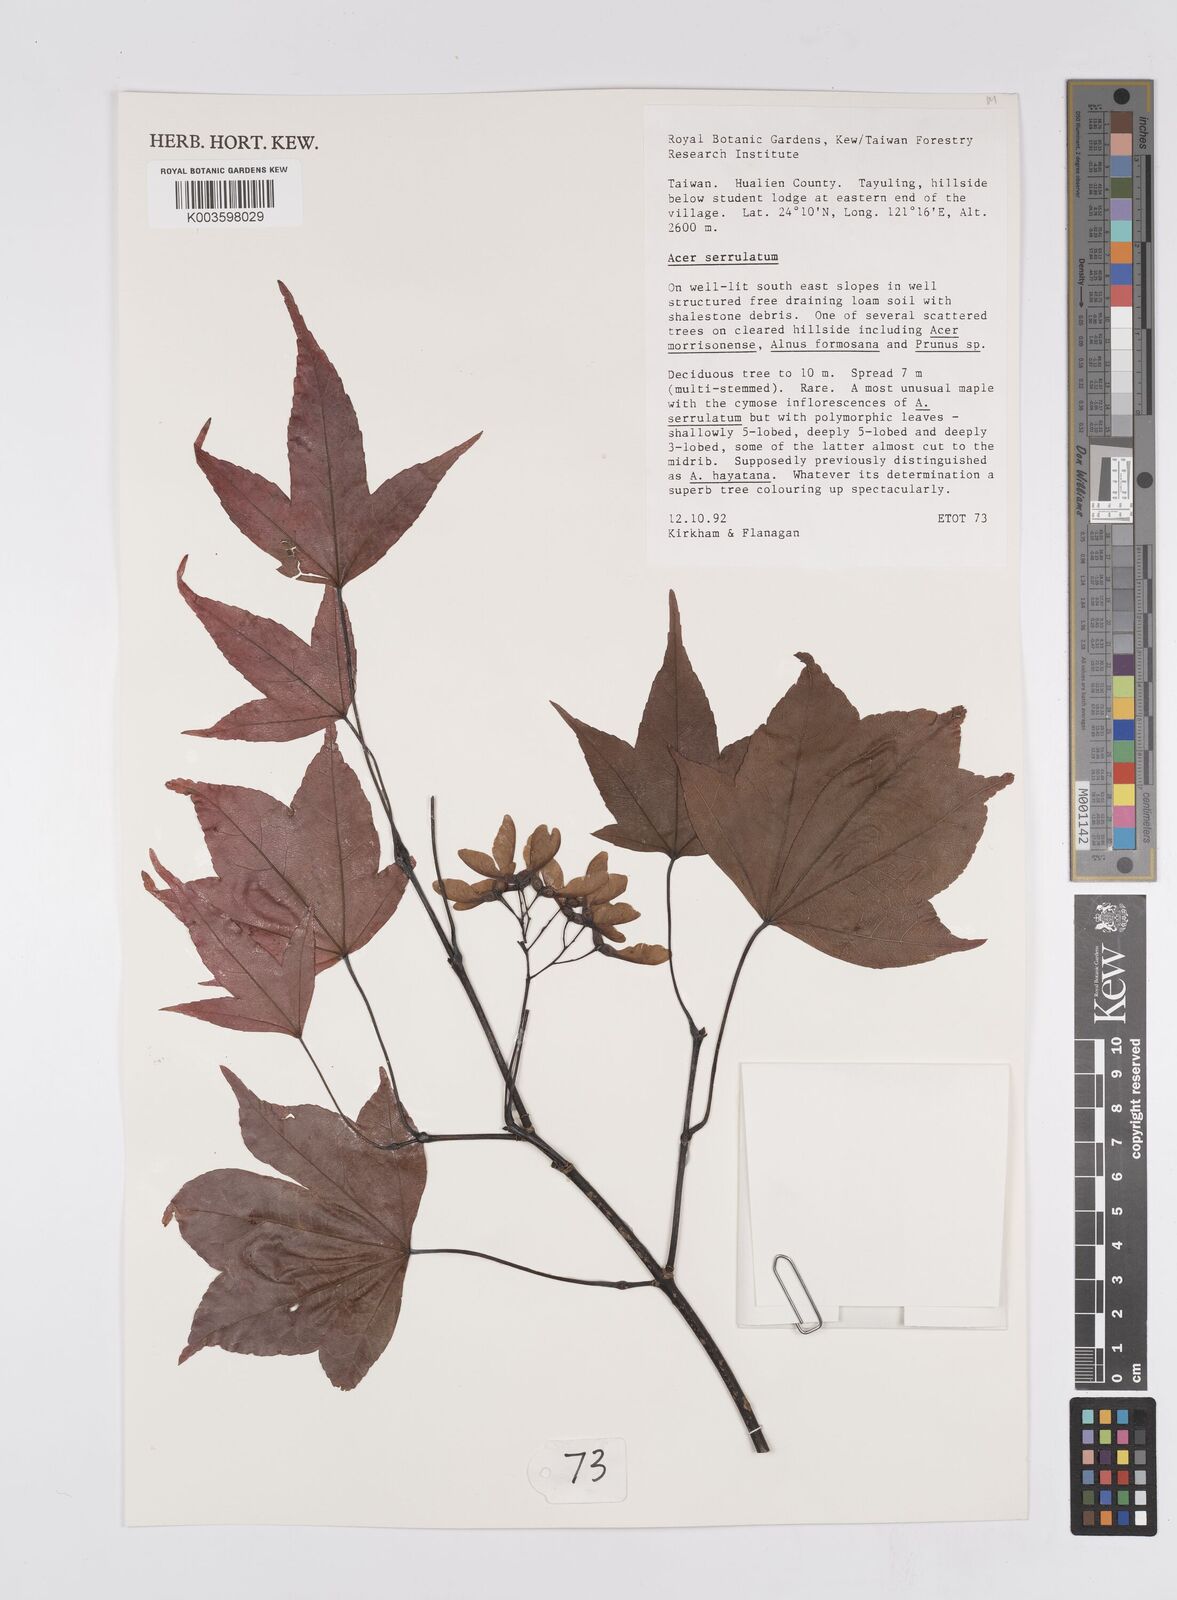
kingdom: Plantae
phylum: Tracheophyta
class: Magnoliopsida
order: Sapindales
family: Sapindaceae
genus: Acer
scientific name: Acer serrulatum
